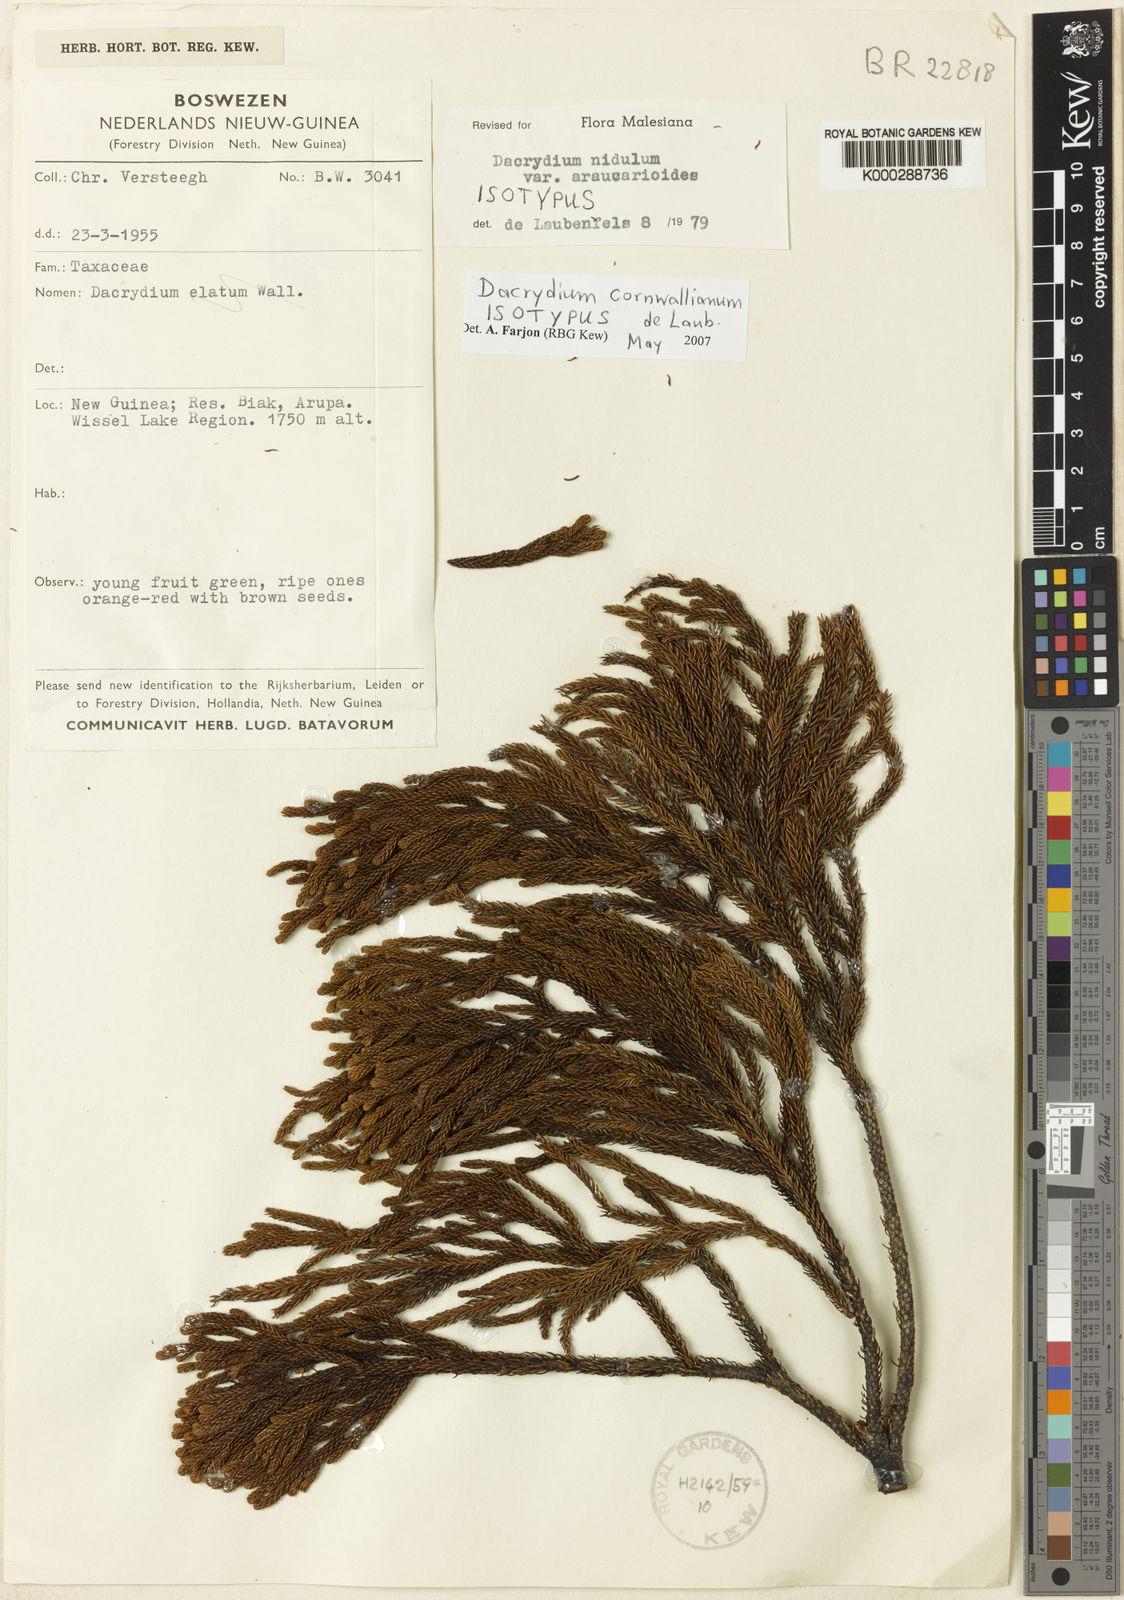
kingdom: Plantae
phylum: Tracheophyta
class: Pinopsida
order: Pinales
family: Podocarpaceae
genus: Dacrydium
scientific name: Dacrydium cornwallianum
